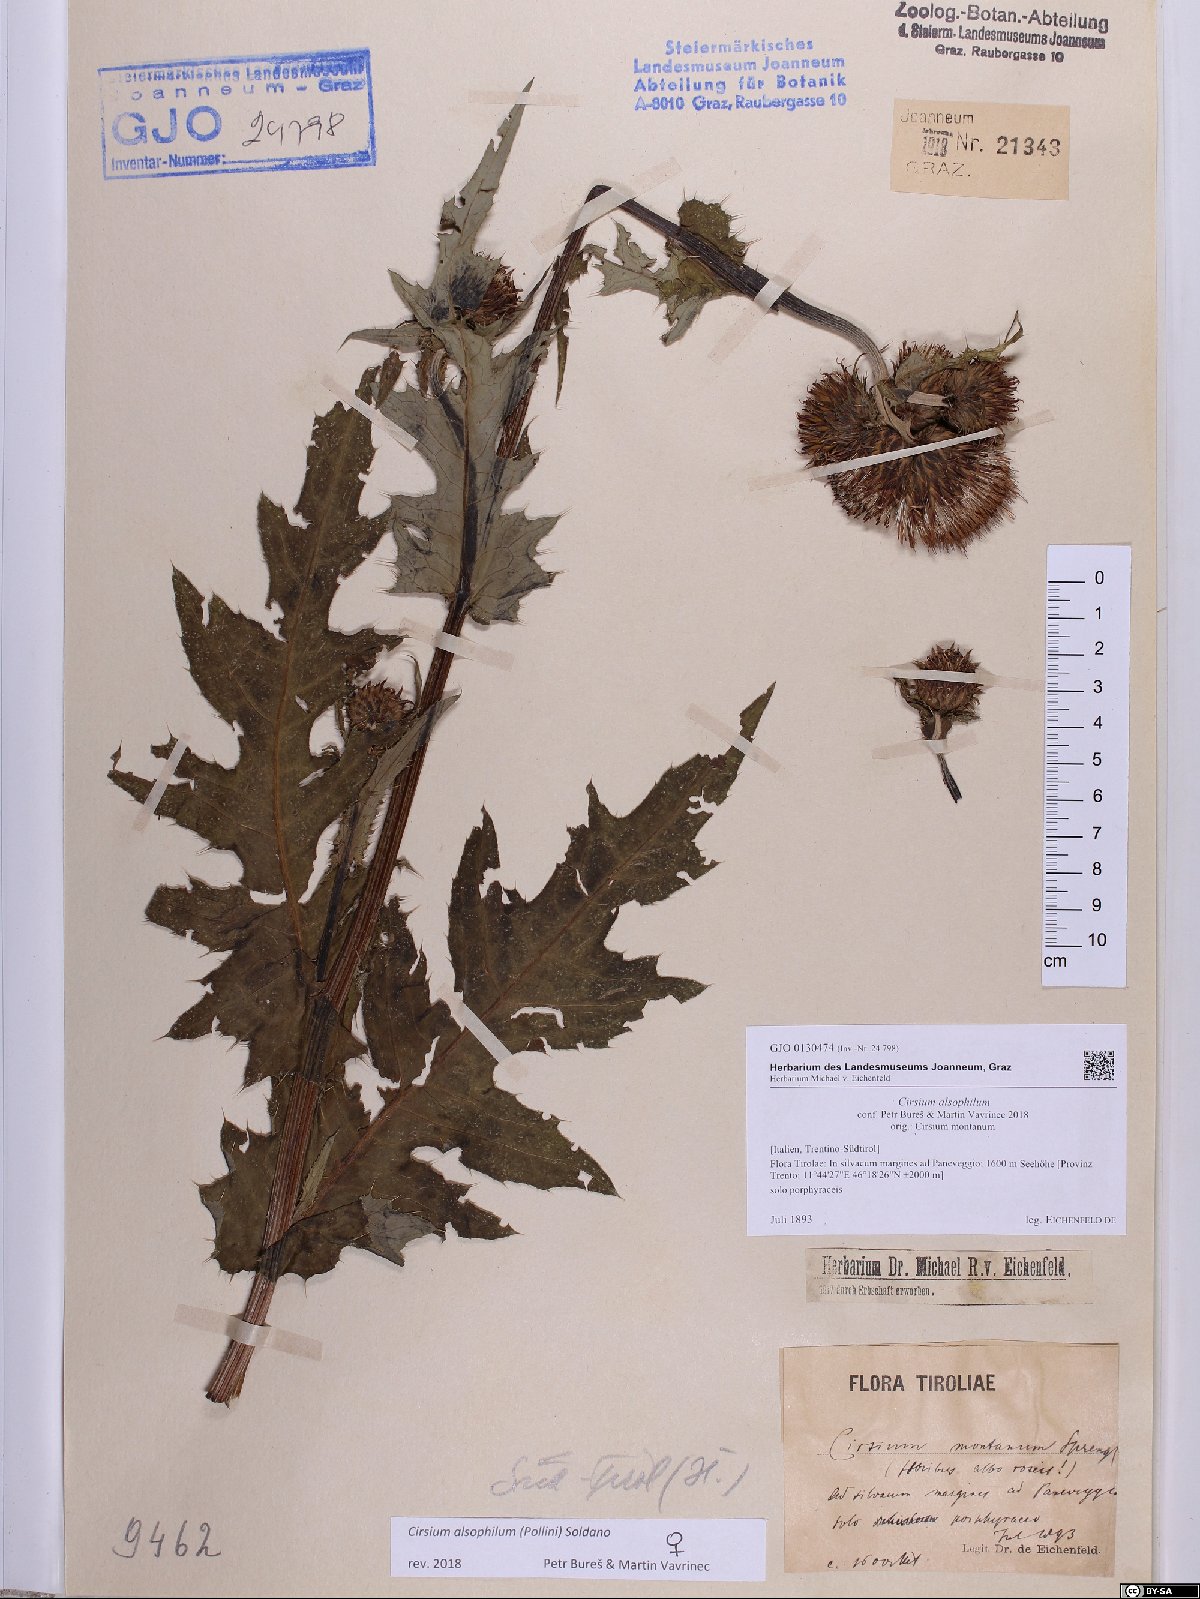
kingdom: Plantae
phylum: Tracheophyta
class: Magnoliopsida
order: Asterales
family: Asteraceae
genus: Cirsium
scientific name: Cirsium alsophilum
